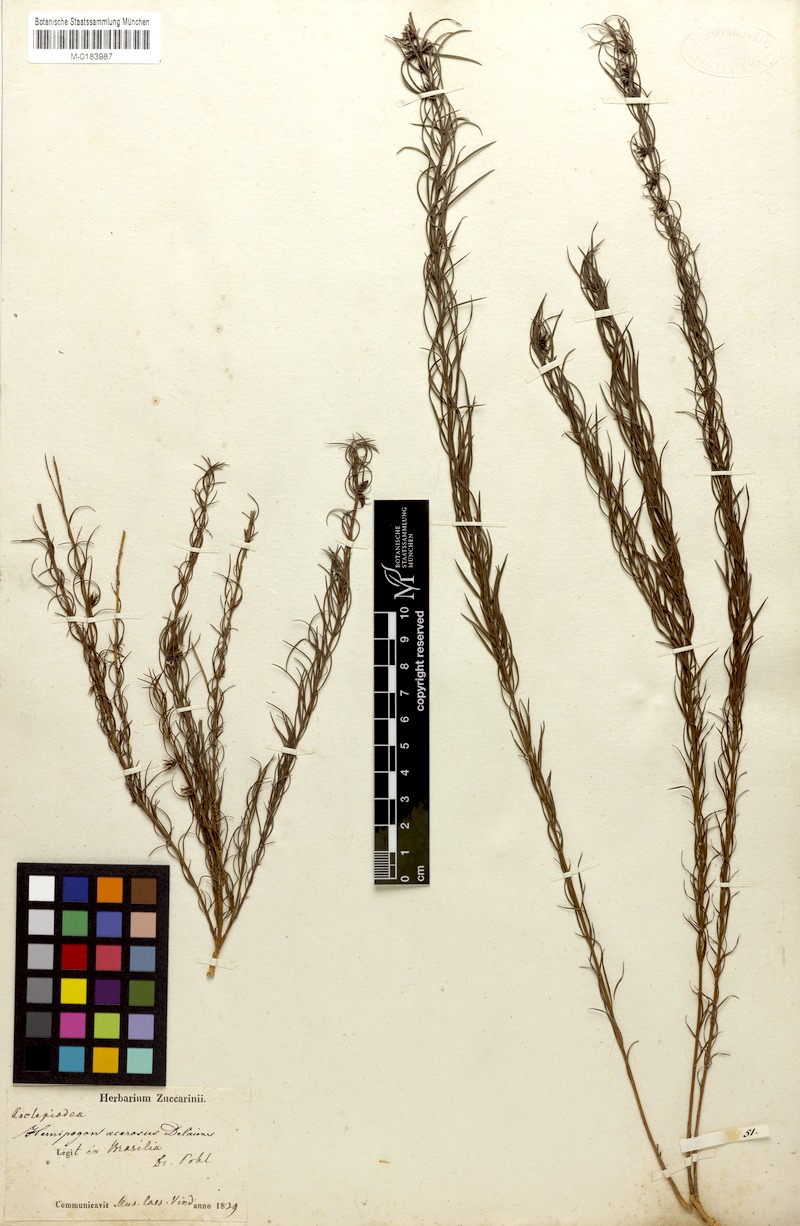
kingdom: Plantae
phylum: Tracheophyta
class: Magnoliopsida
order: Gentianales
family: Apocynaceae
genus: Hemipogon
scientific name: Hemipogon acerosus
